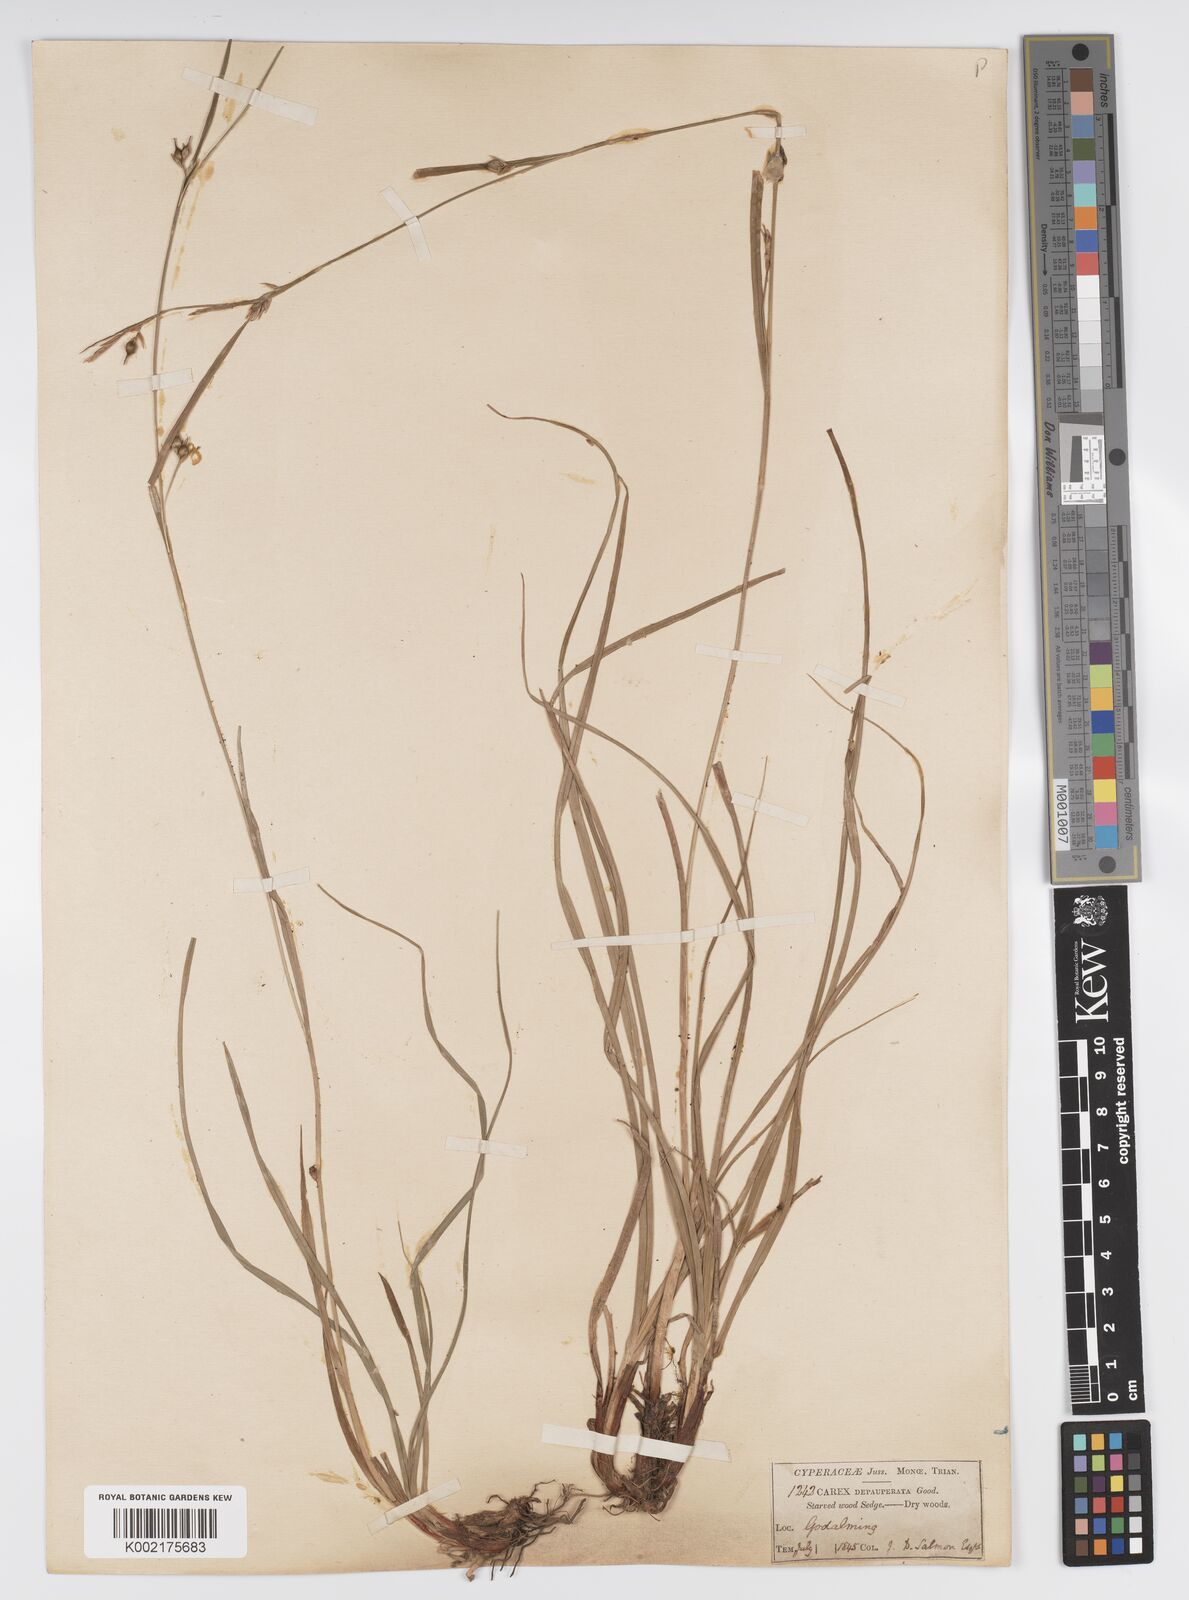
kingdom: Plantae
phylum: Tracheophyta
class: Liliopsida
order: Poales
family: Cyperaceae
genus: Carex
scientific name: Carex vaginata
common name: Sheathed sedge
